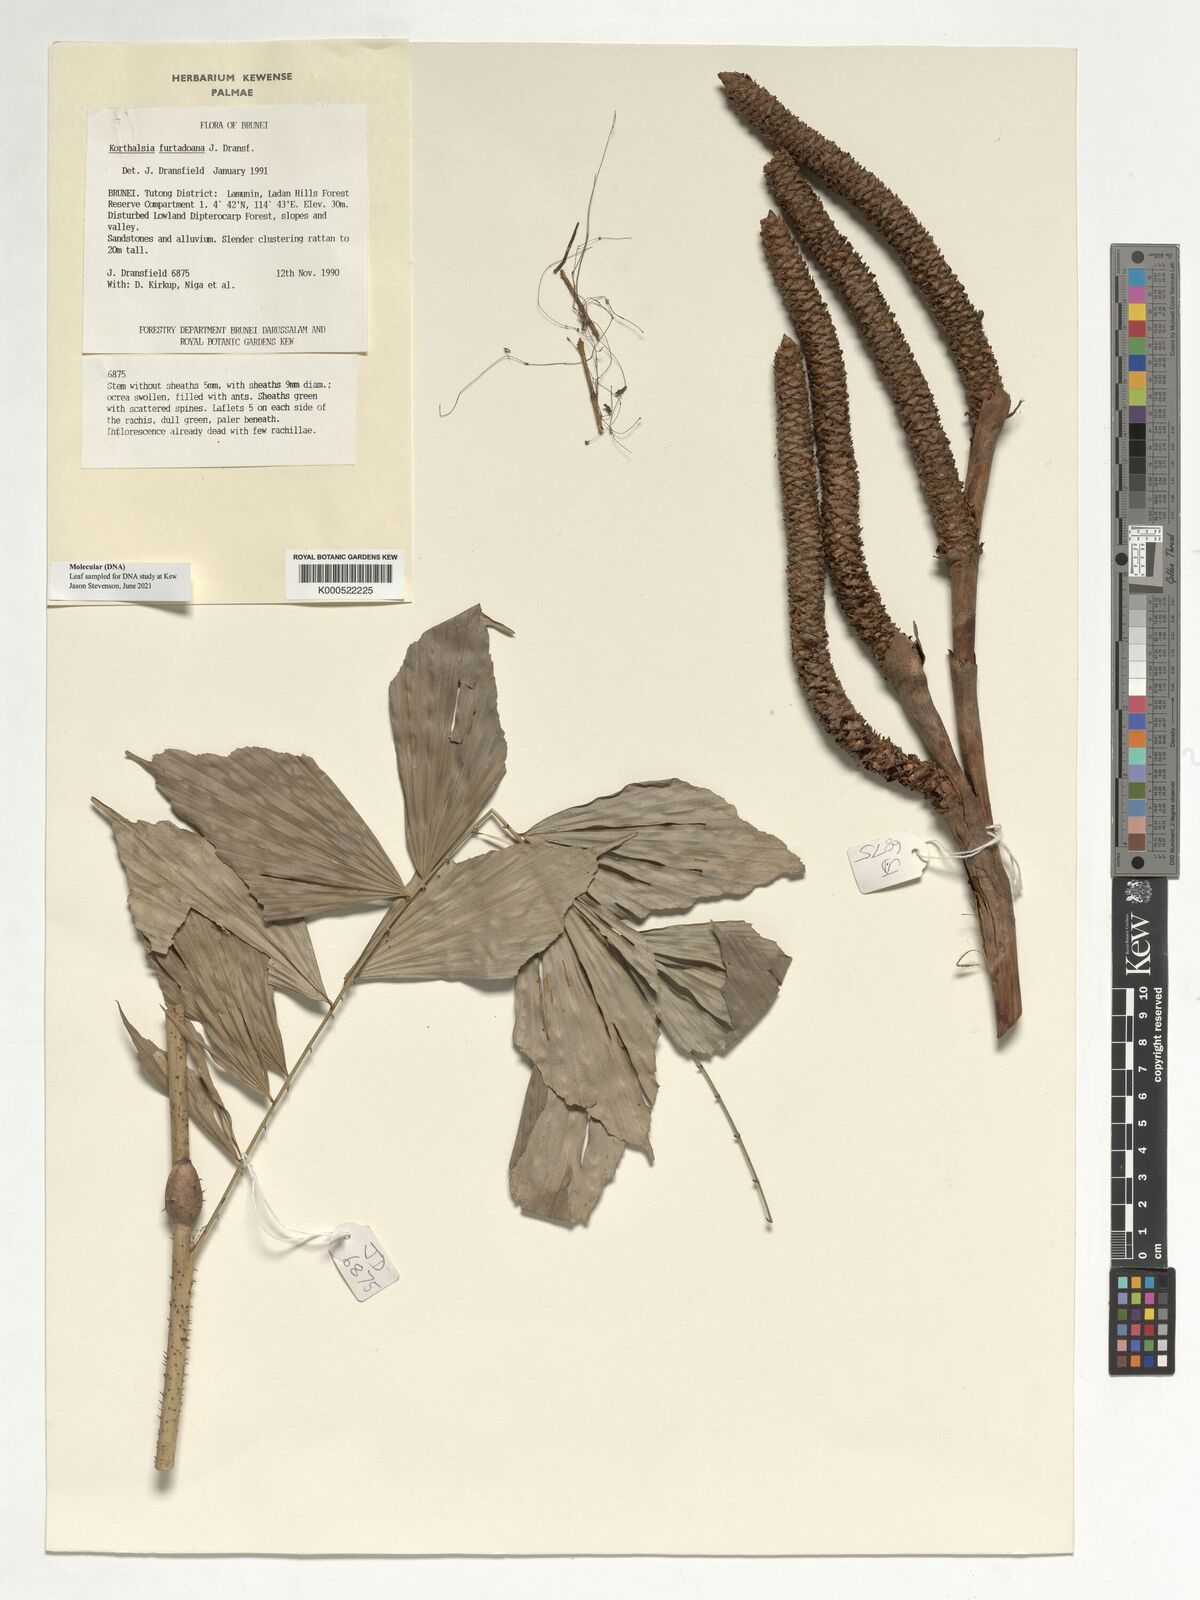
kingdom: Plantae
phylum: Tracheophyta
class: Liliopsida
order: Arecales
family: Arecaceae
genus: Korthalsia
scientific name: Korthalsia furtadoana
